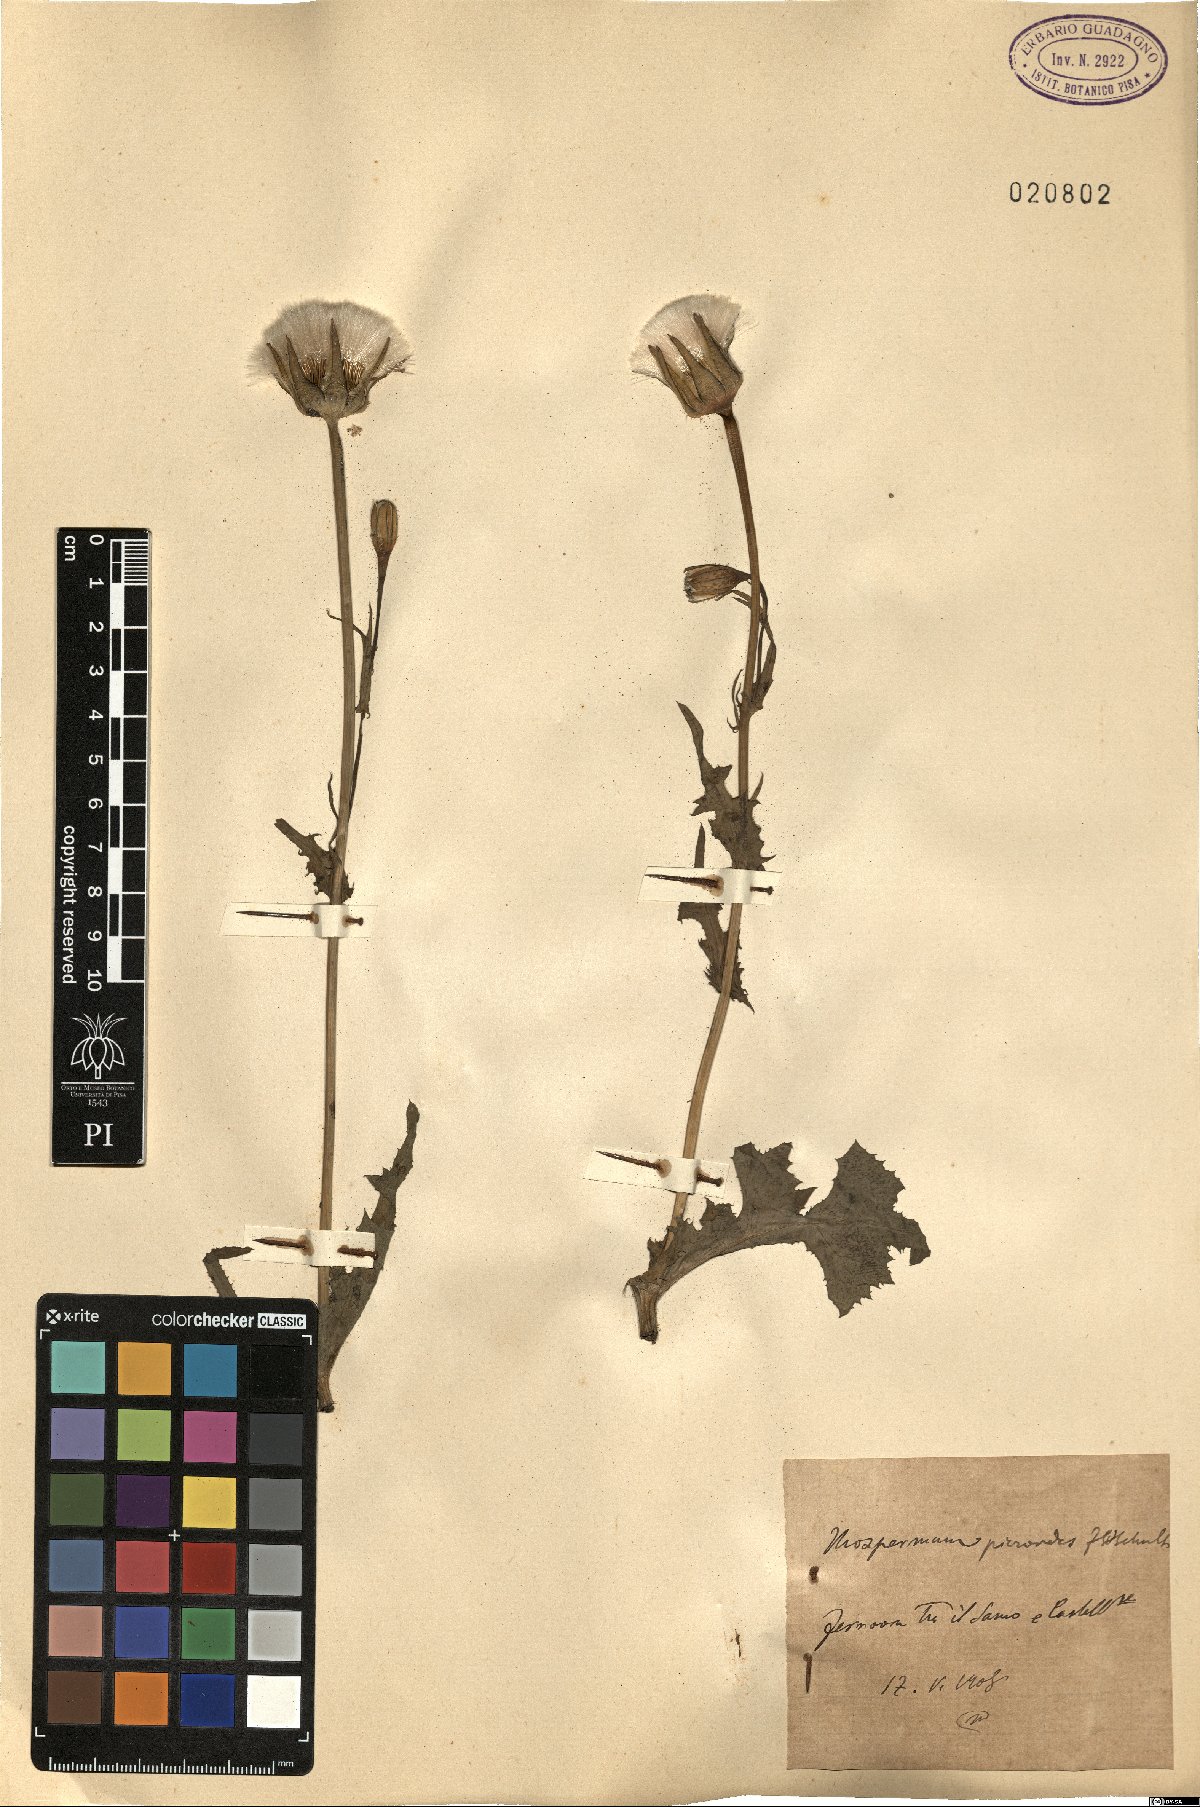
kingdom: Plantae
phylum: Tracheophyta
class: Magnoliopsida
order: Asterales
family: Asteraceae
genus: Urospermum
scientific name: Urospermum picroides
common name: False hawkbit
